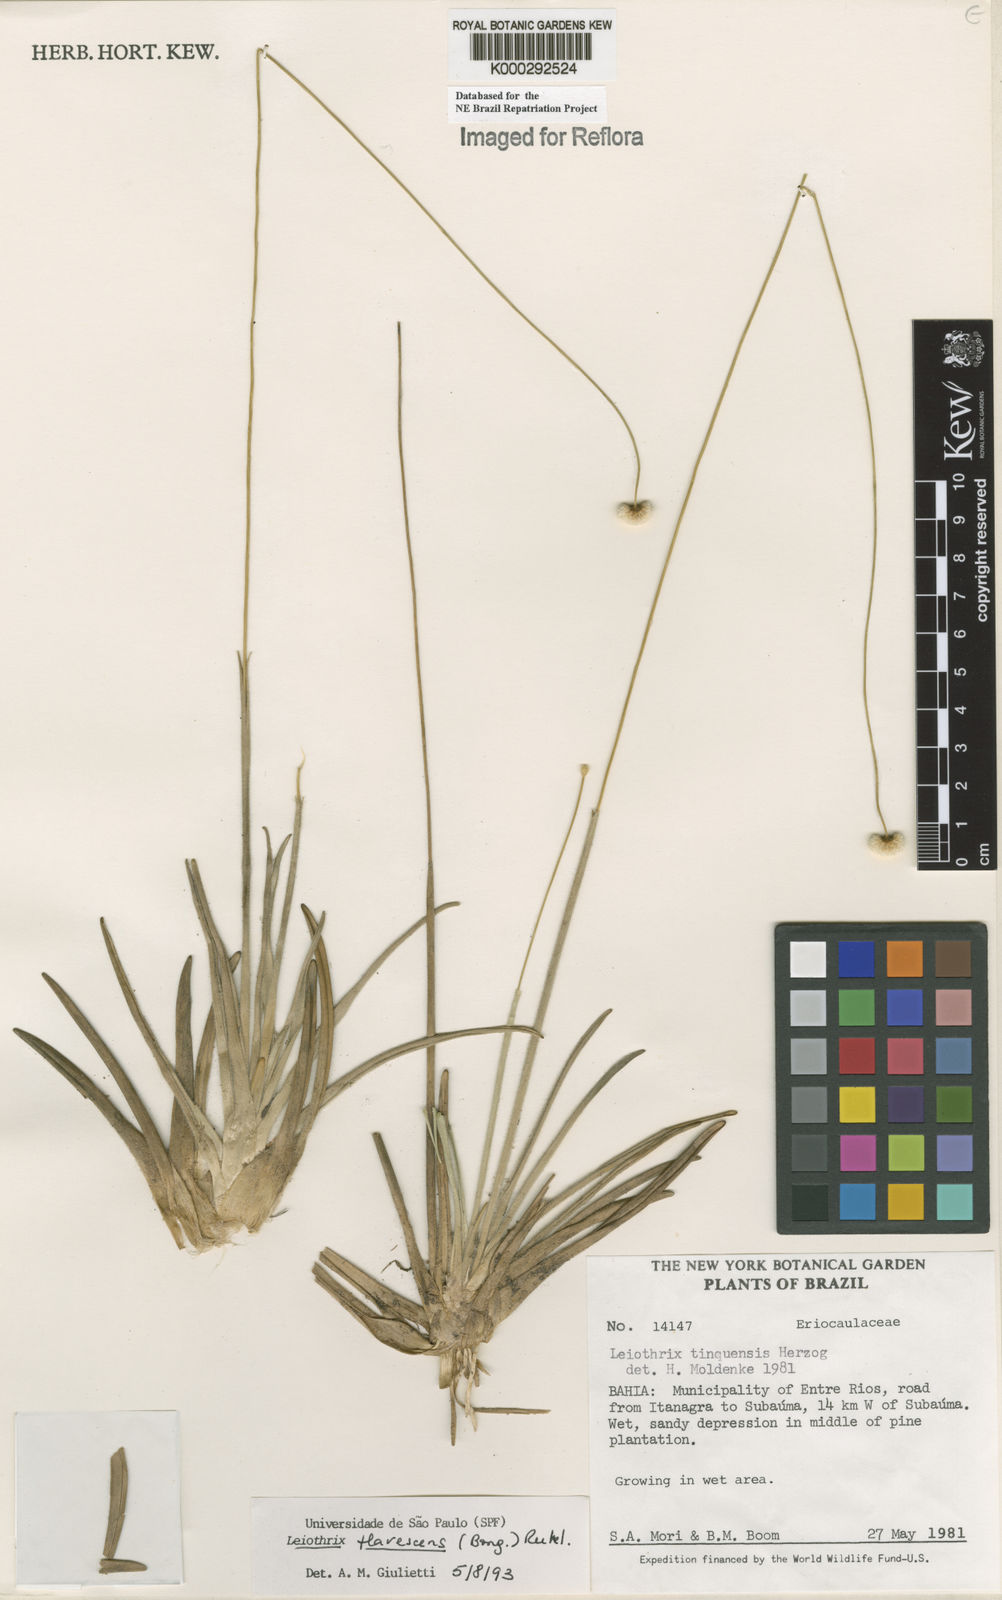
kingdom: Plantae
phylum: Tracheophyta
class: Liliopsida
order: Poales
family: Eriocaulaceae
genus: Leiothrix
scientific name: Leiothrix flavescens
